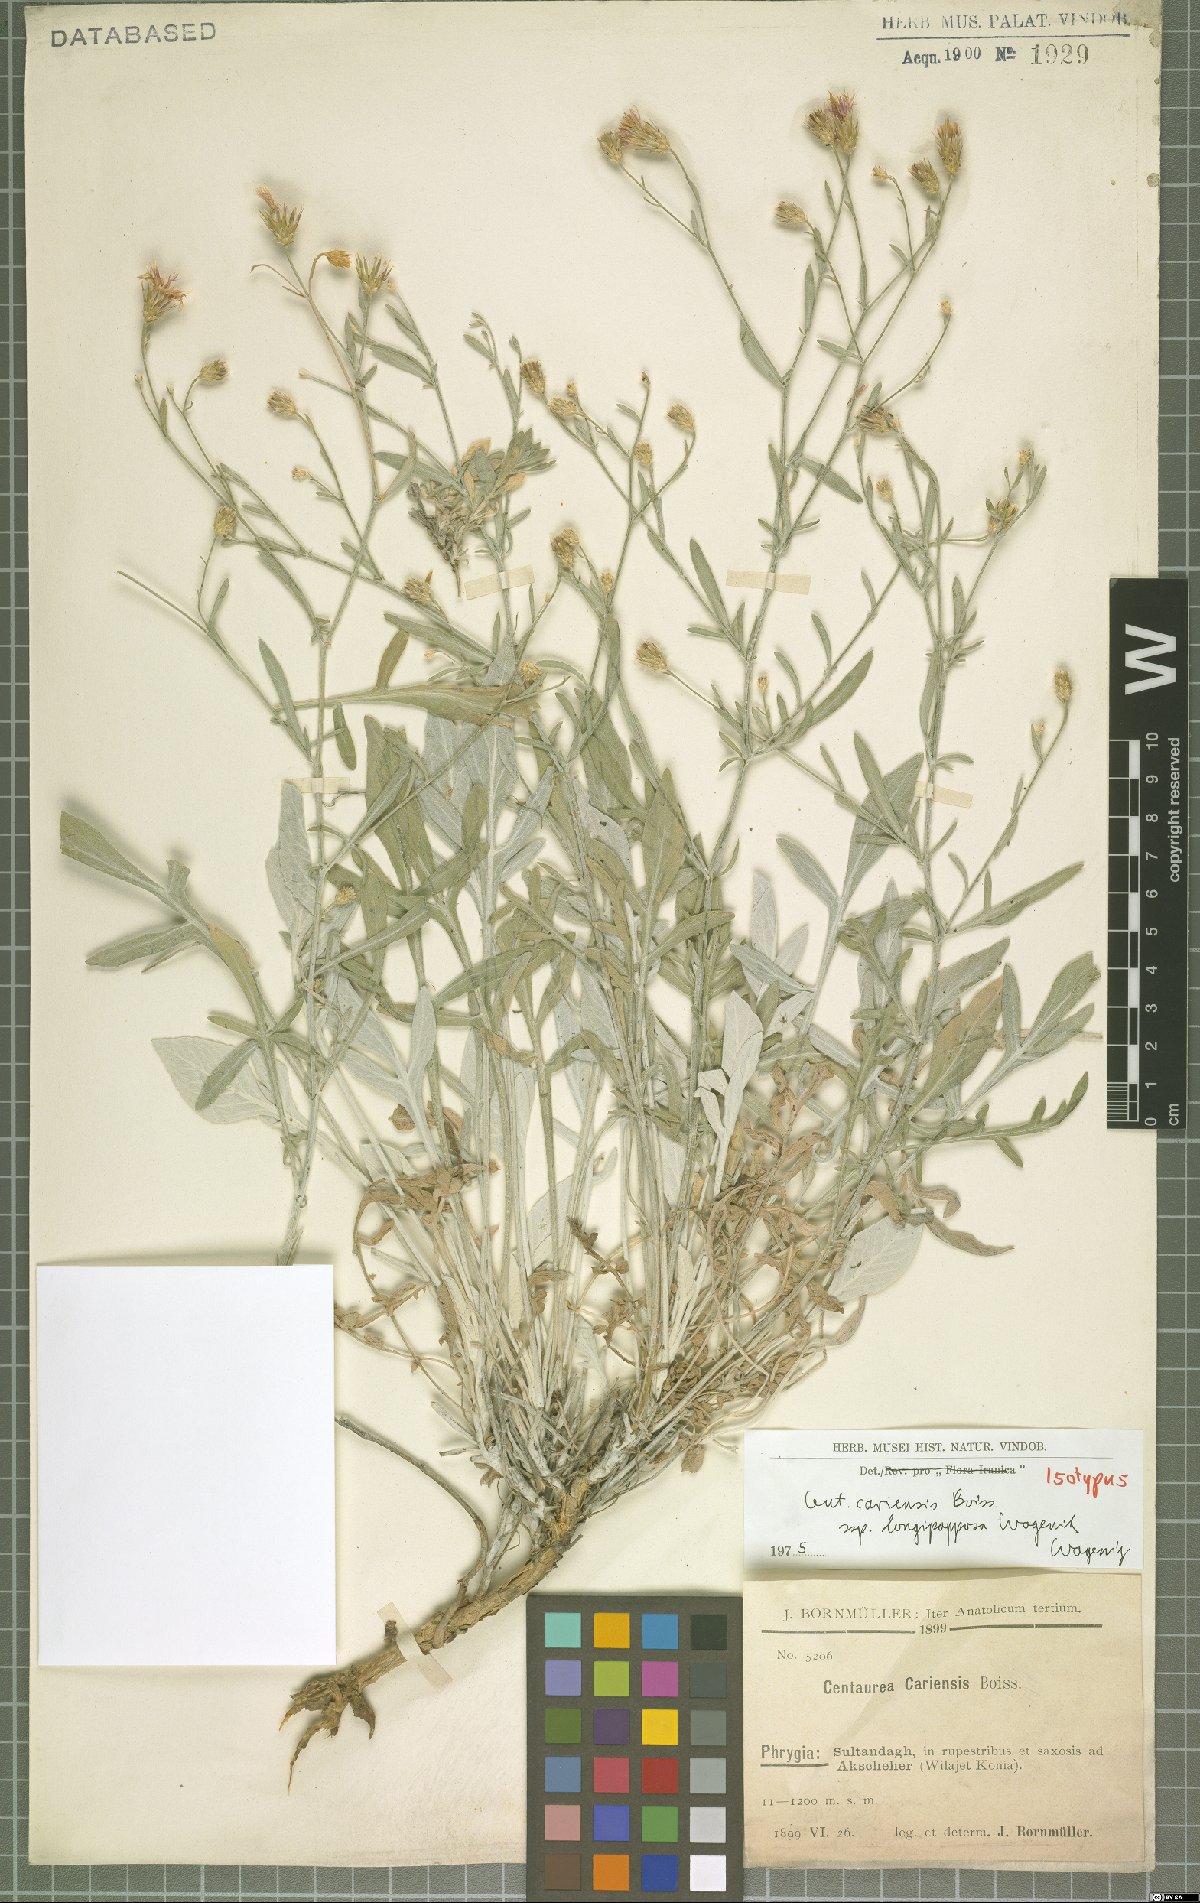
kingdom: Plantae
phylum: Tracheophyta
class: Magnoliopsida
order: Asterales
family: Asteraceae
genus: Centaurea
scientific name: Centaurea cariensis
